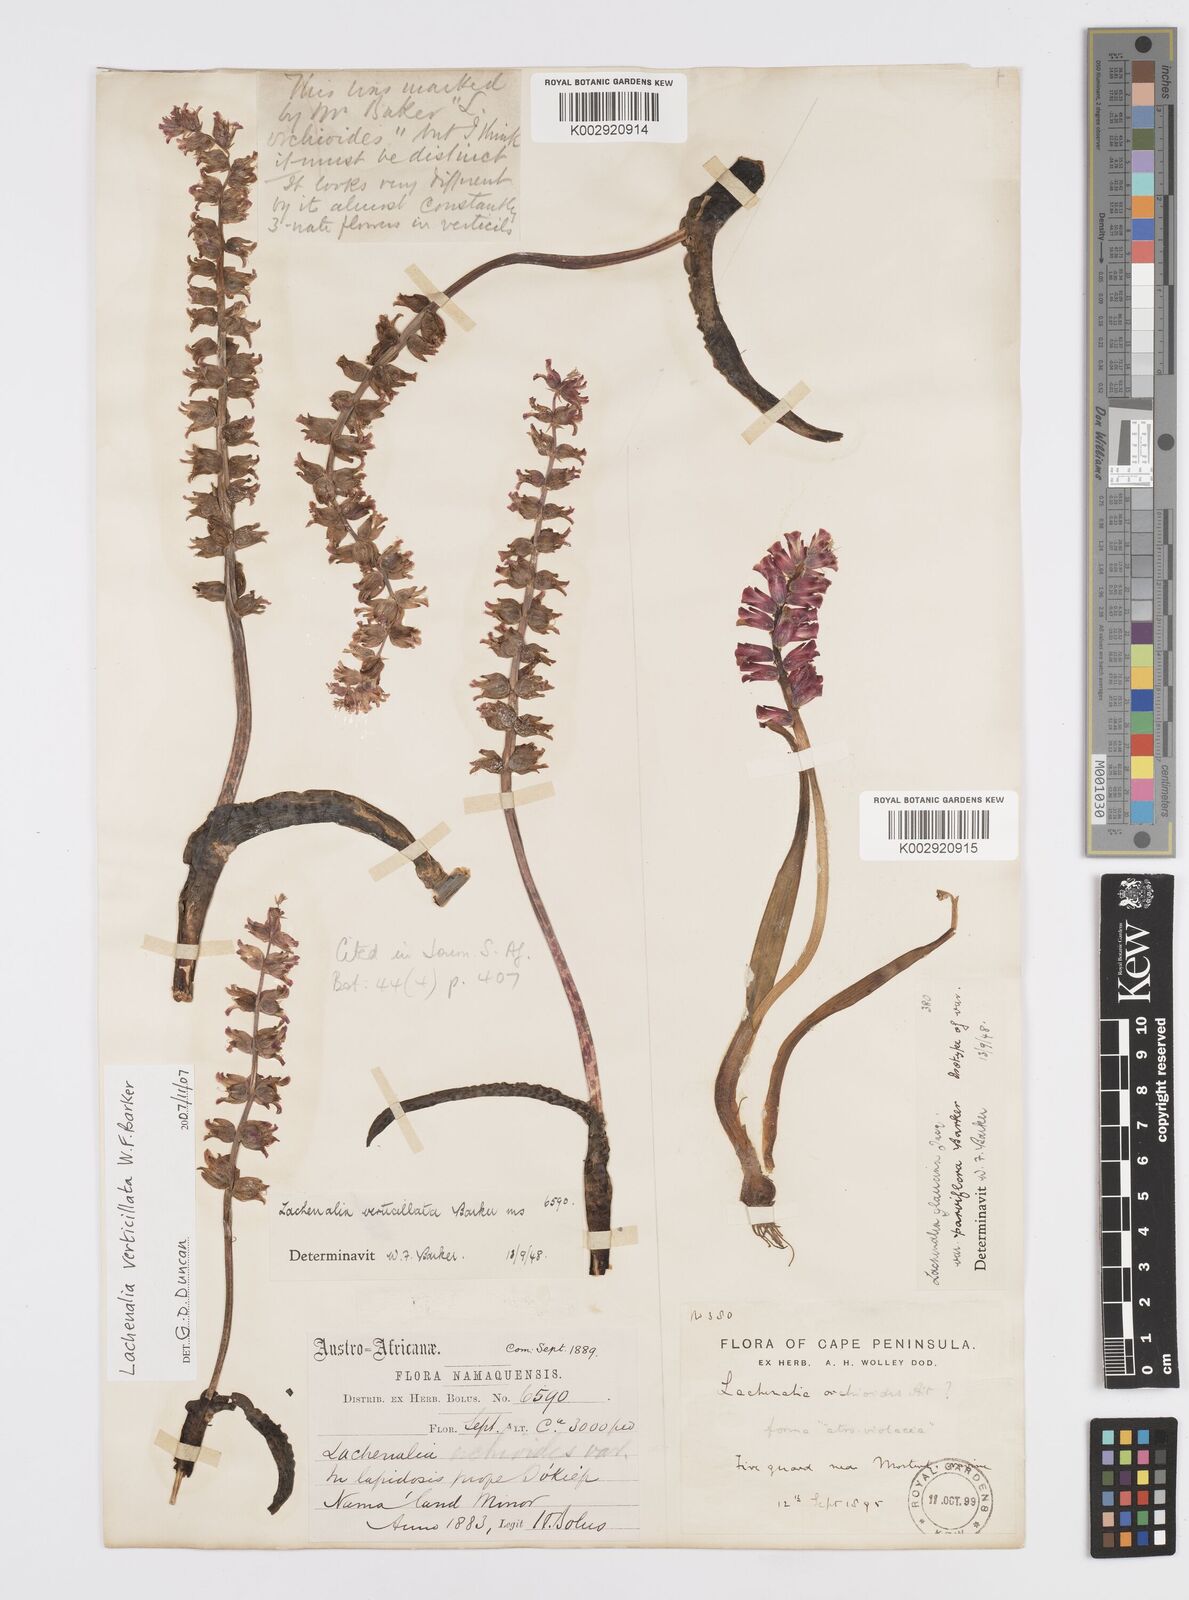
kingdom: Plantae
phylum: Tracheophyta
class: Liliopsida
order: Asparagales
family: Asparagaceae
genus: Lachenalia
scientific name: Lachenalia verticillata
